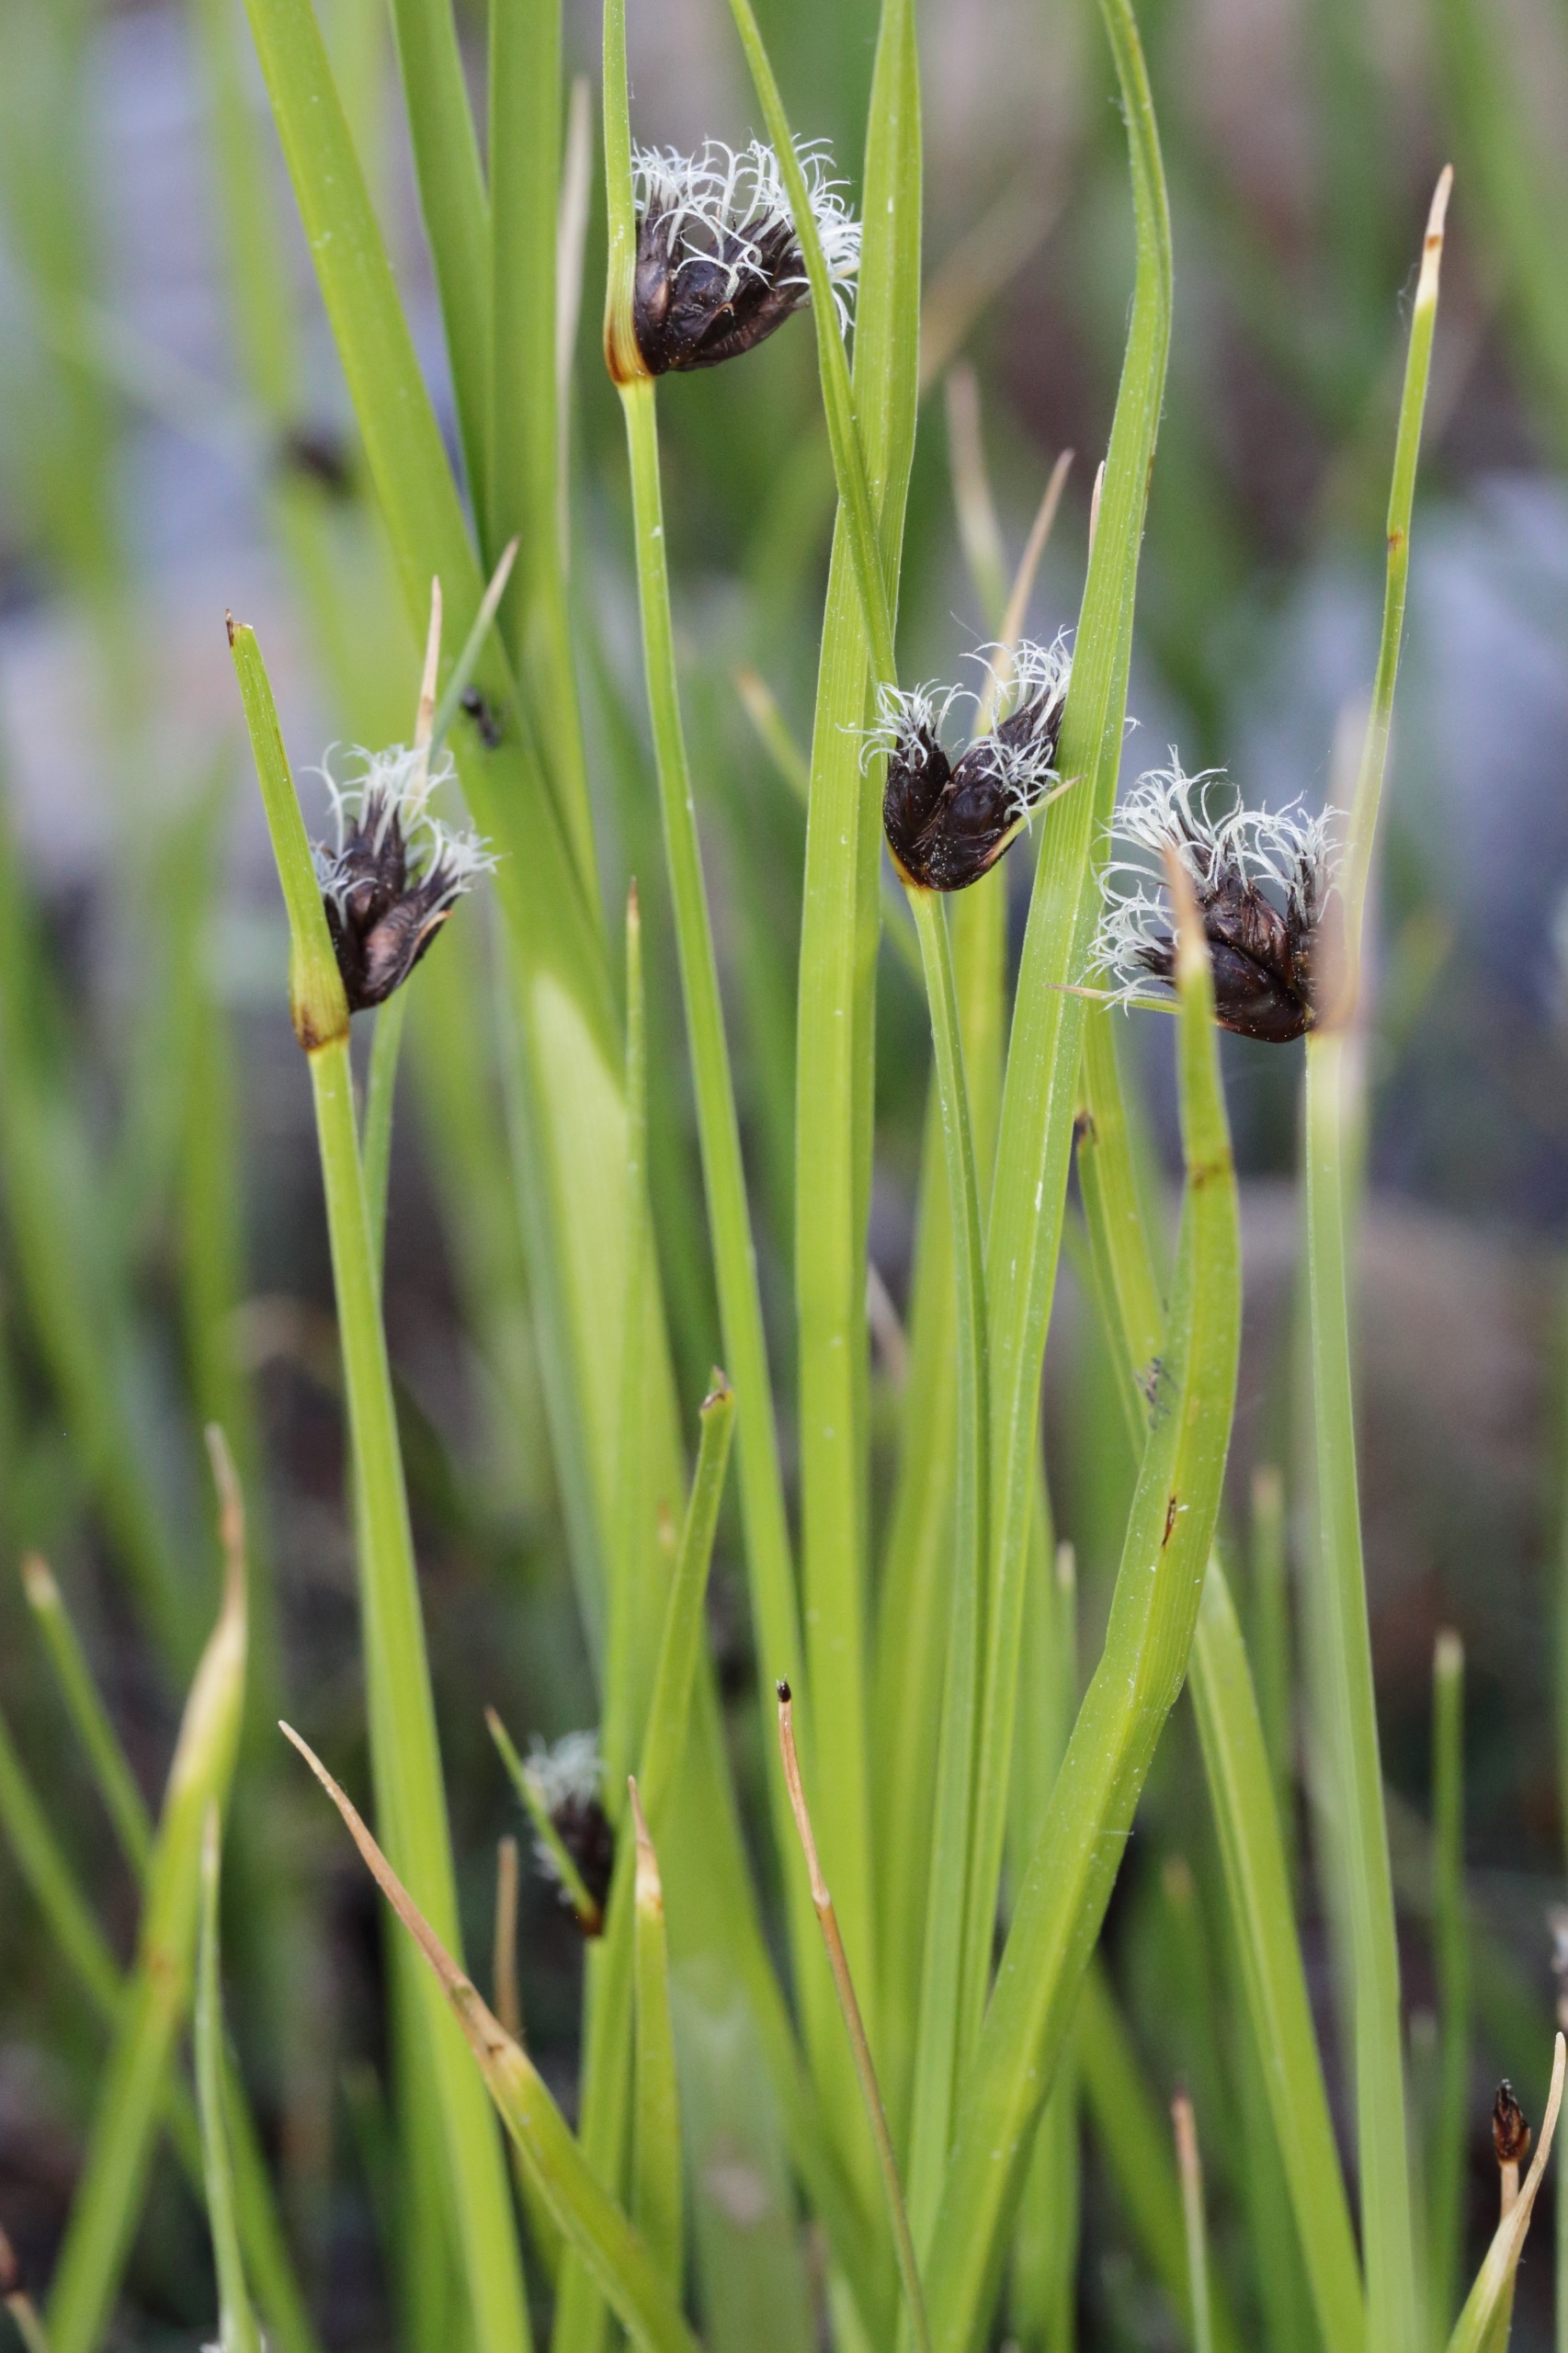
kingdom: Plantae
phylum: Tracheophyta
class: Liliopsida
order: Poales
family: Cyperaceae
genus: Bolboschoenus
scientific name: Bolboschoenus maritimus
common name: Strand-kogleaks
